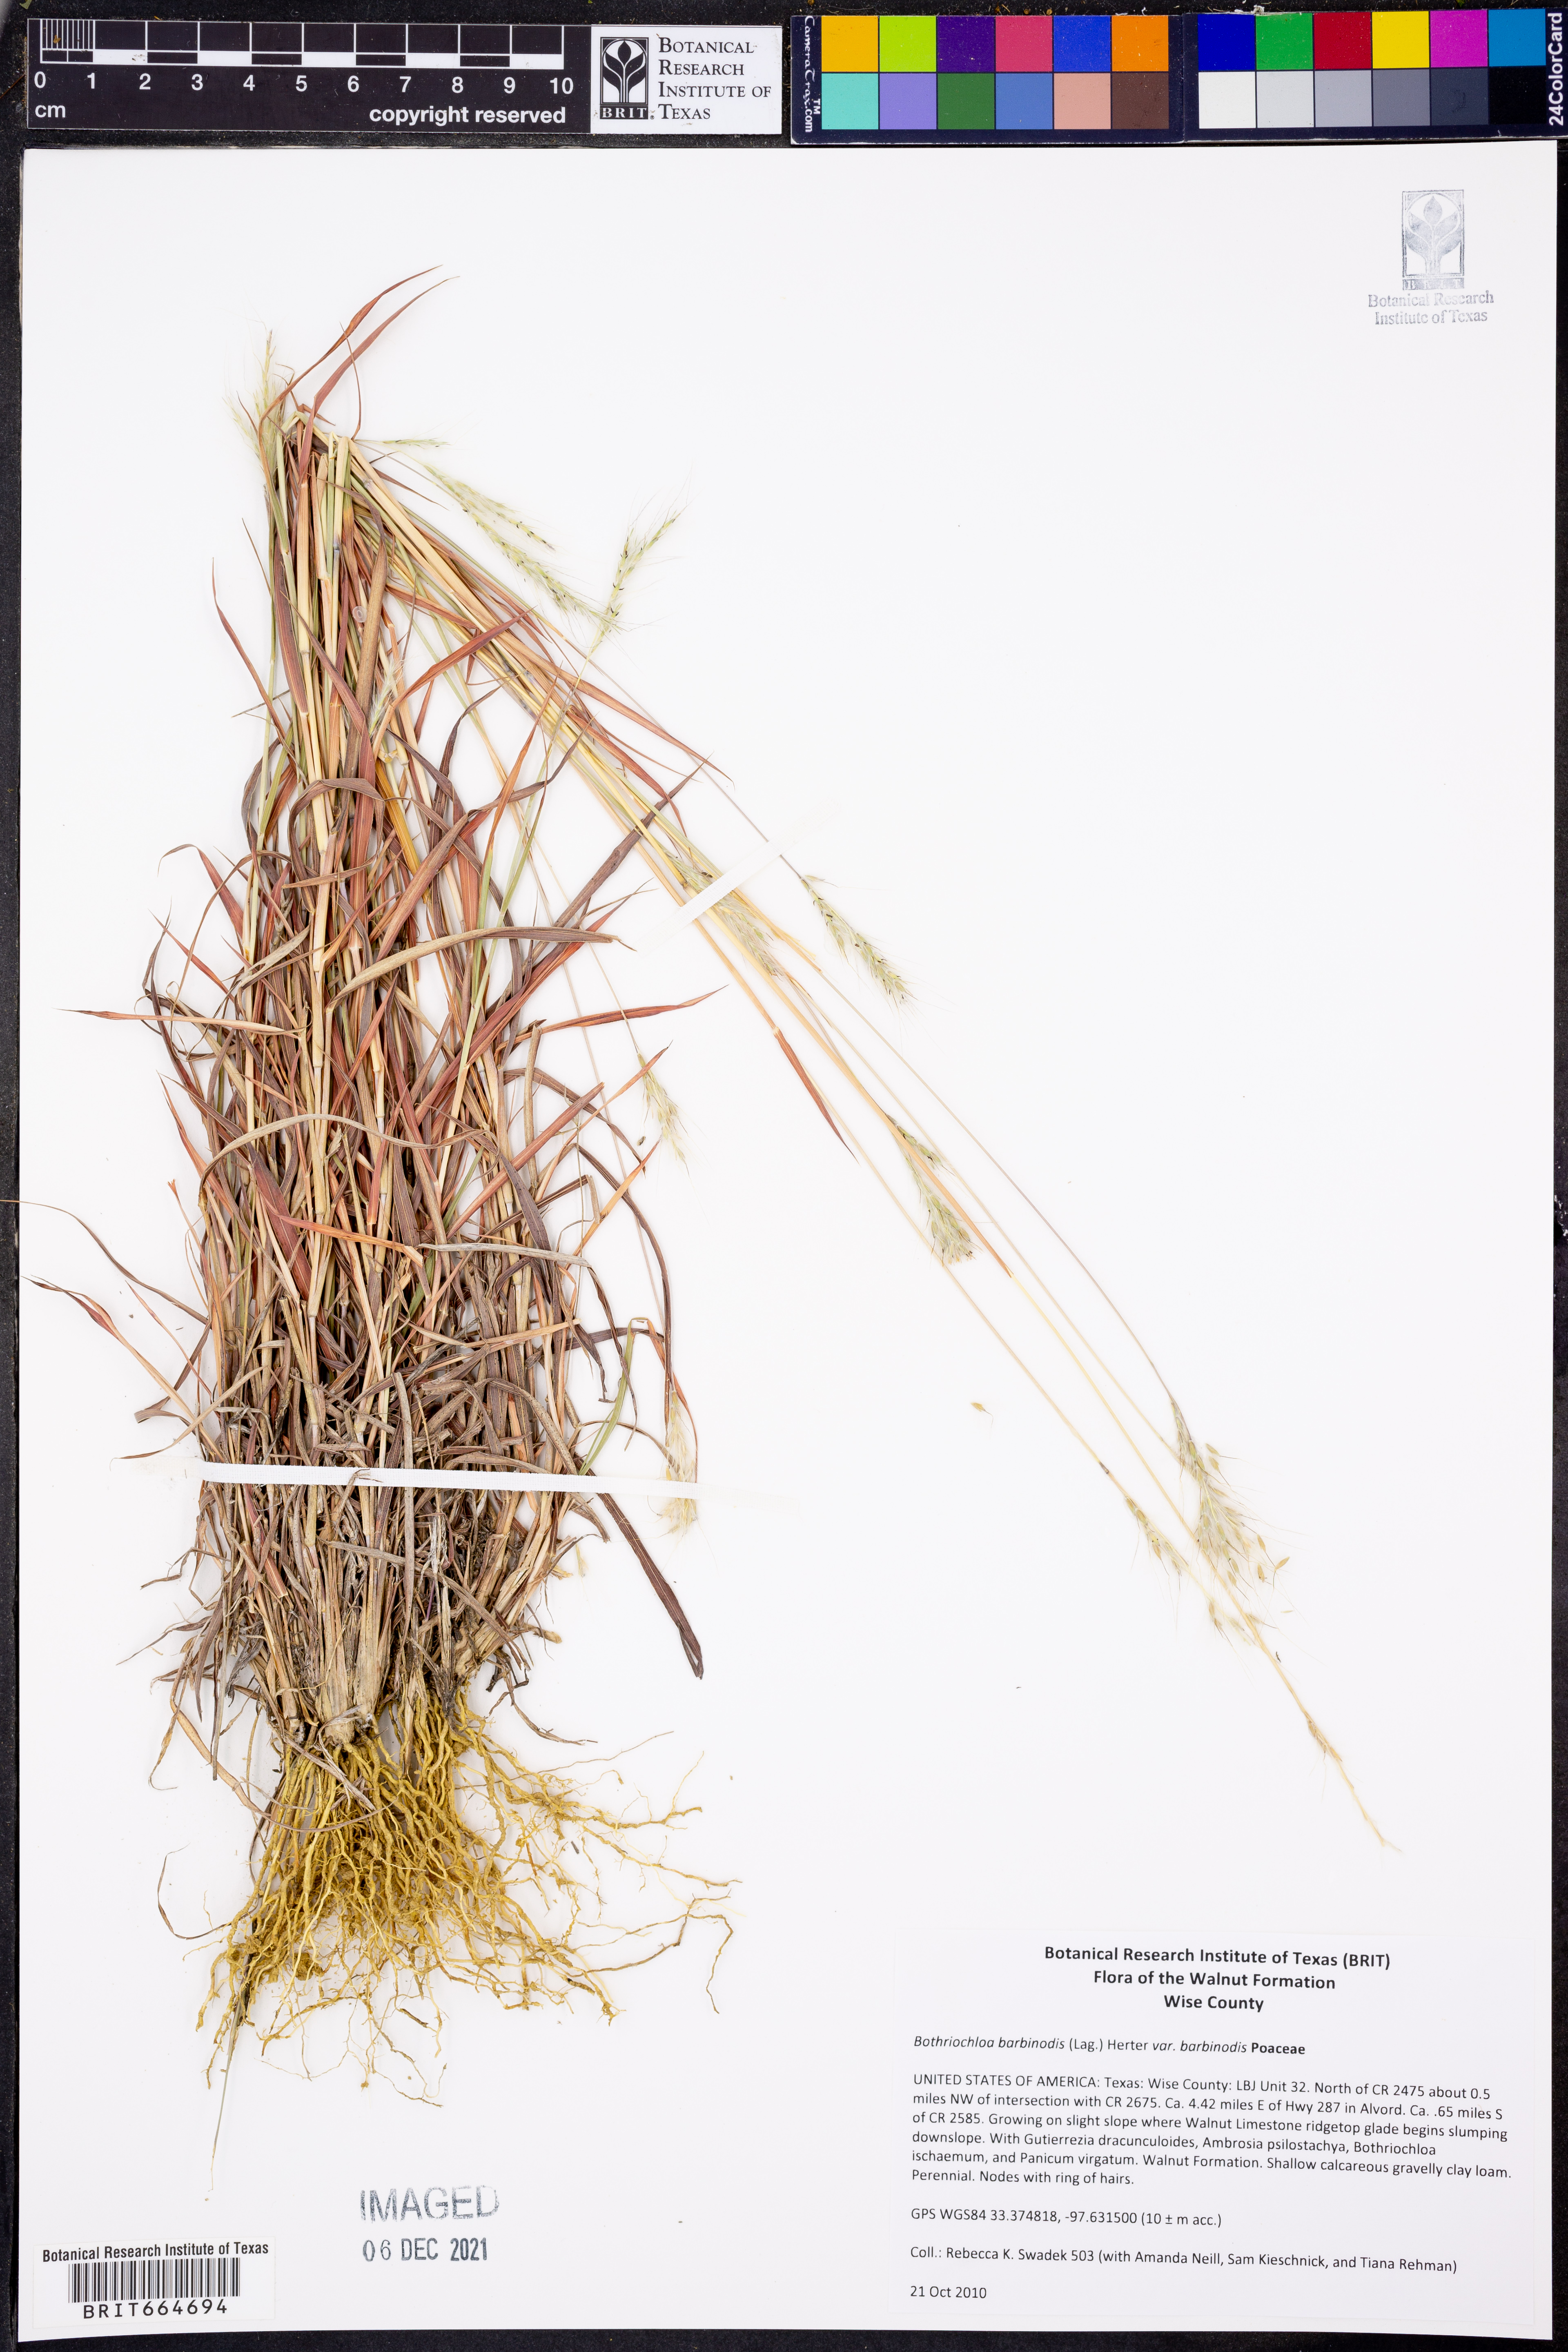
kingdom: Plantae
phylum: Tracheophyta
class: Liliopsida
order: Poales
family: Poaceae
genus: Bothriochloa
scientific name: Bothriochloa barbinodis
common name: Cane bluestem
